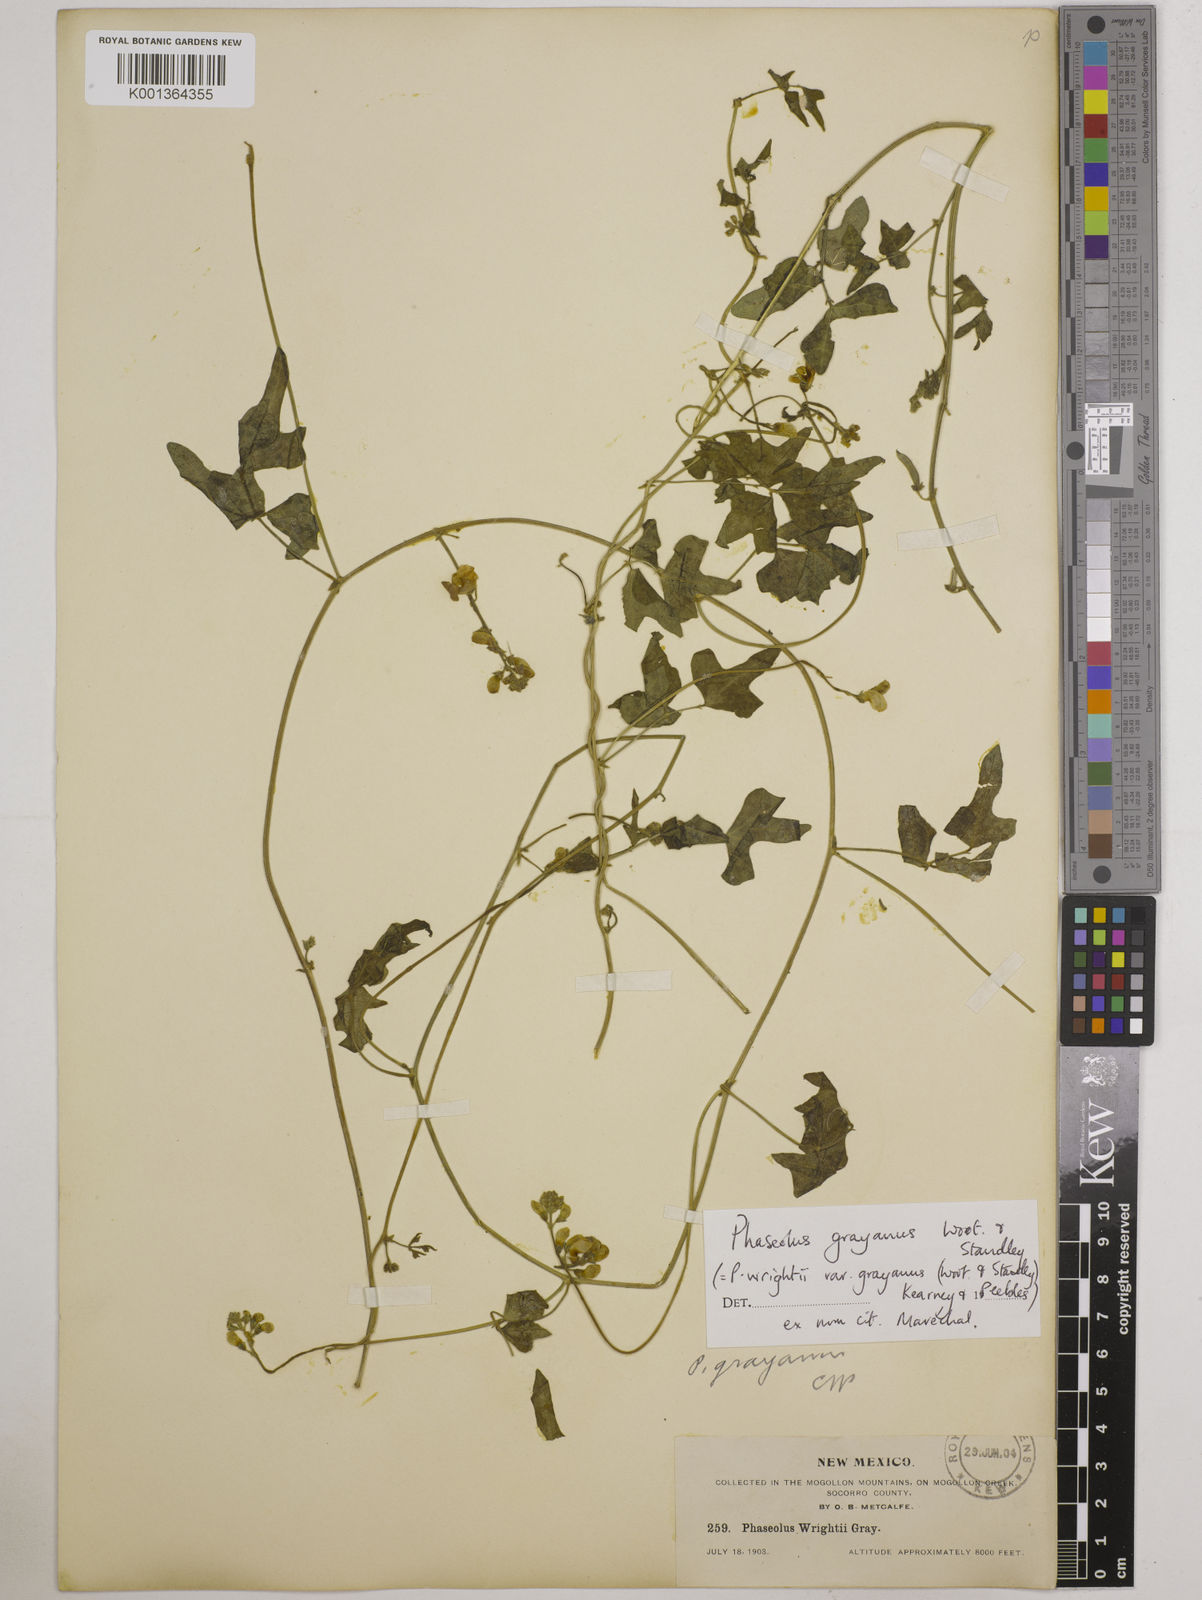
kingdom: Plantae
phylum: Tracheophyta
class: Magnoliopsida
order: Fabales
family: Fabaceae
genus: Phaseolus
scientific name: Phaseolus pedicellatus
